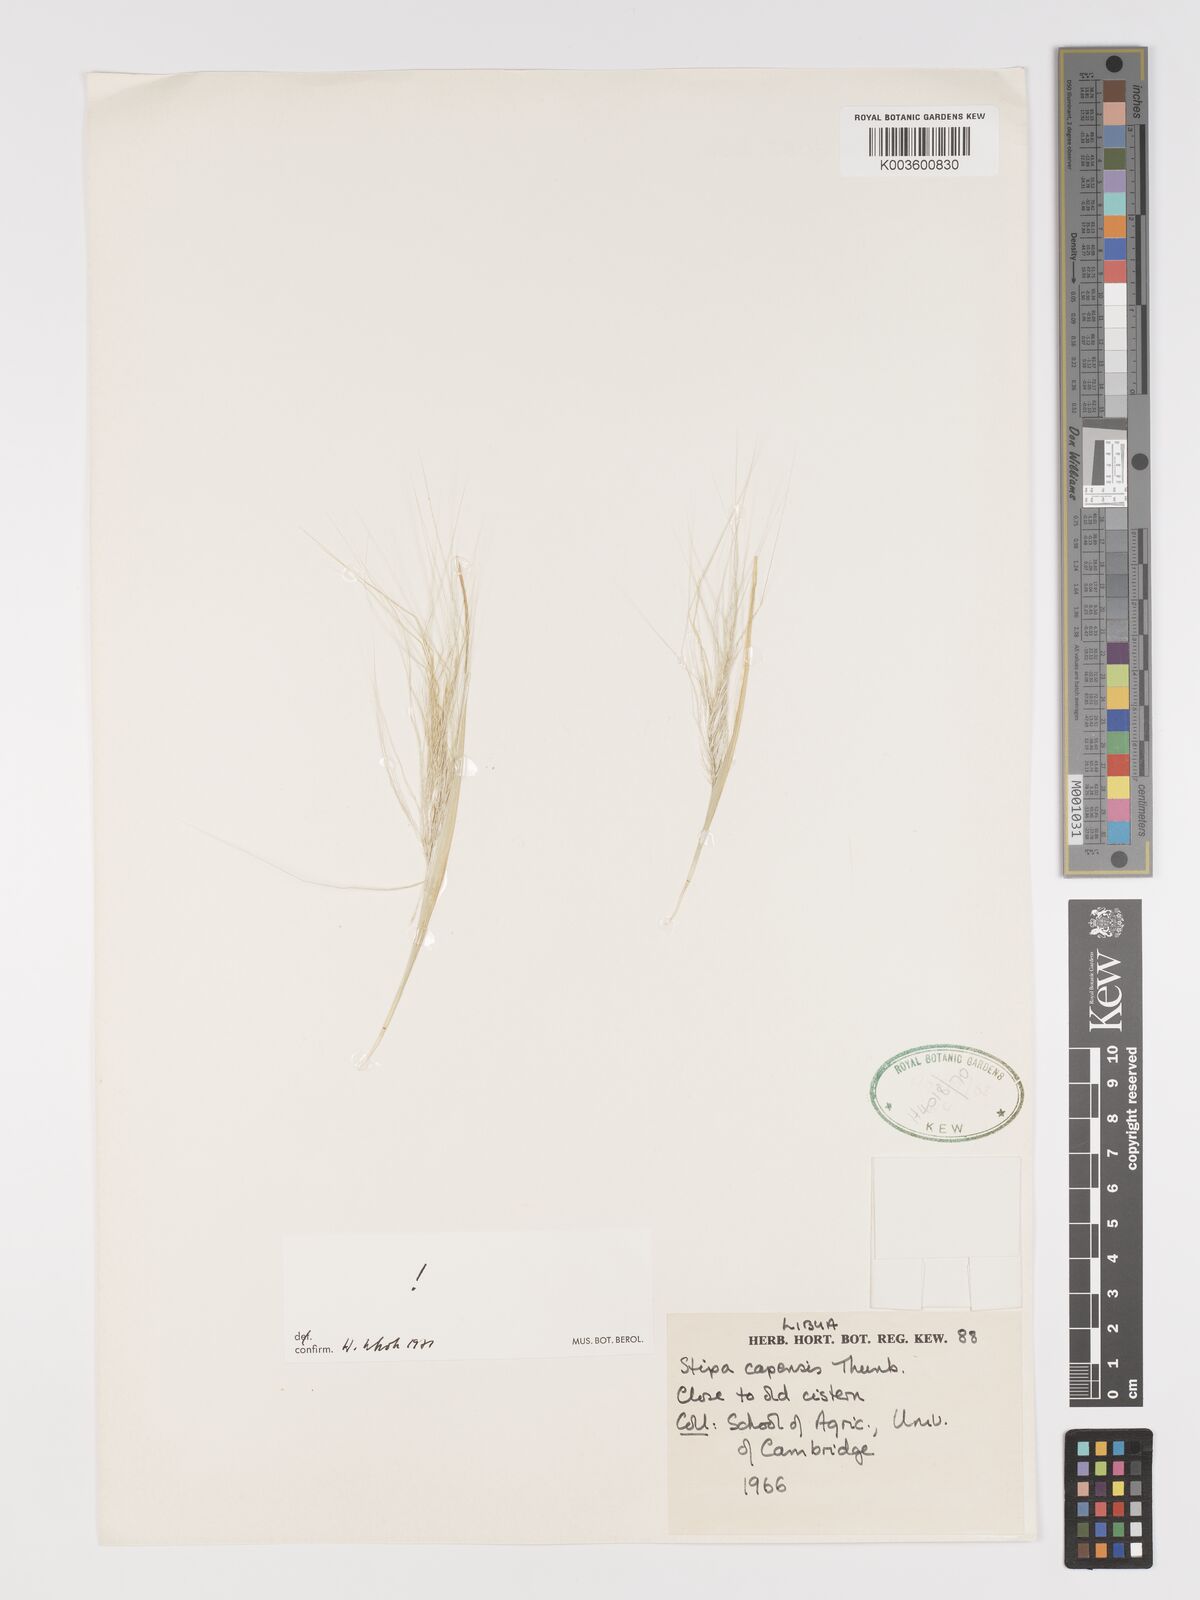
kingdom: Plantae
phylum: Tracheophyta
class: Liliopsida
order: Poales
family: Poaceae
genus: Stipellula
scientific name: Stipellula capensis
